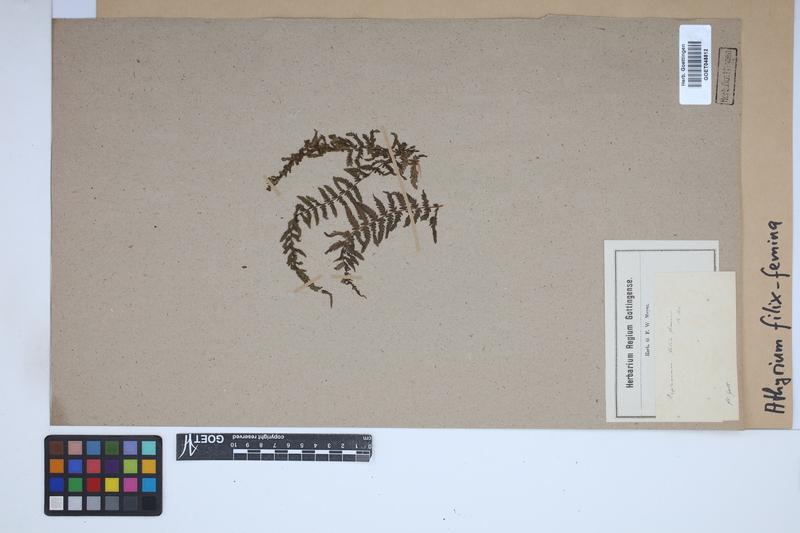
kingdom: Plantae
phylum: Tracheophyta
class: Polypodiopsida
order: Polypodiales
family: Athyriaceae
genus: Athyrium
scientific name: Athyrium filix-femina
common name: Lady fern
